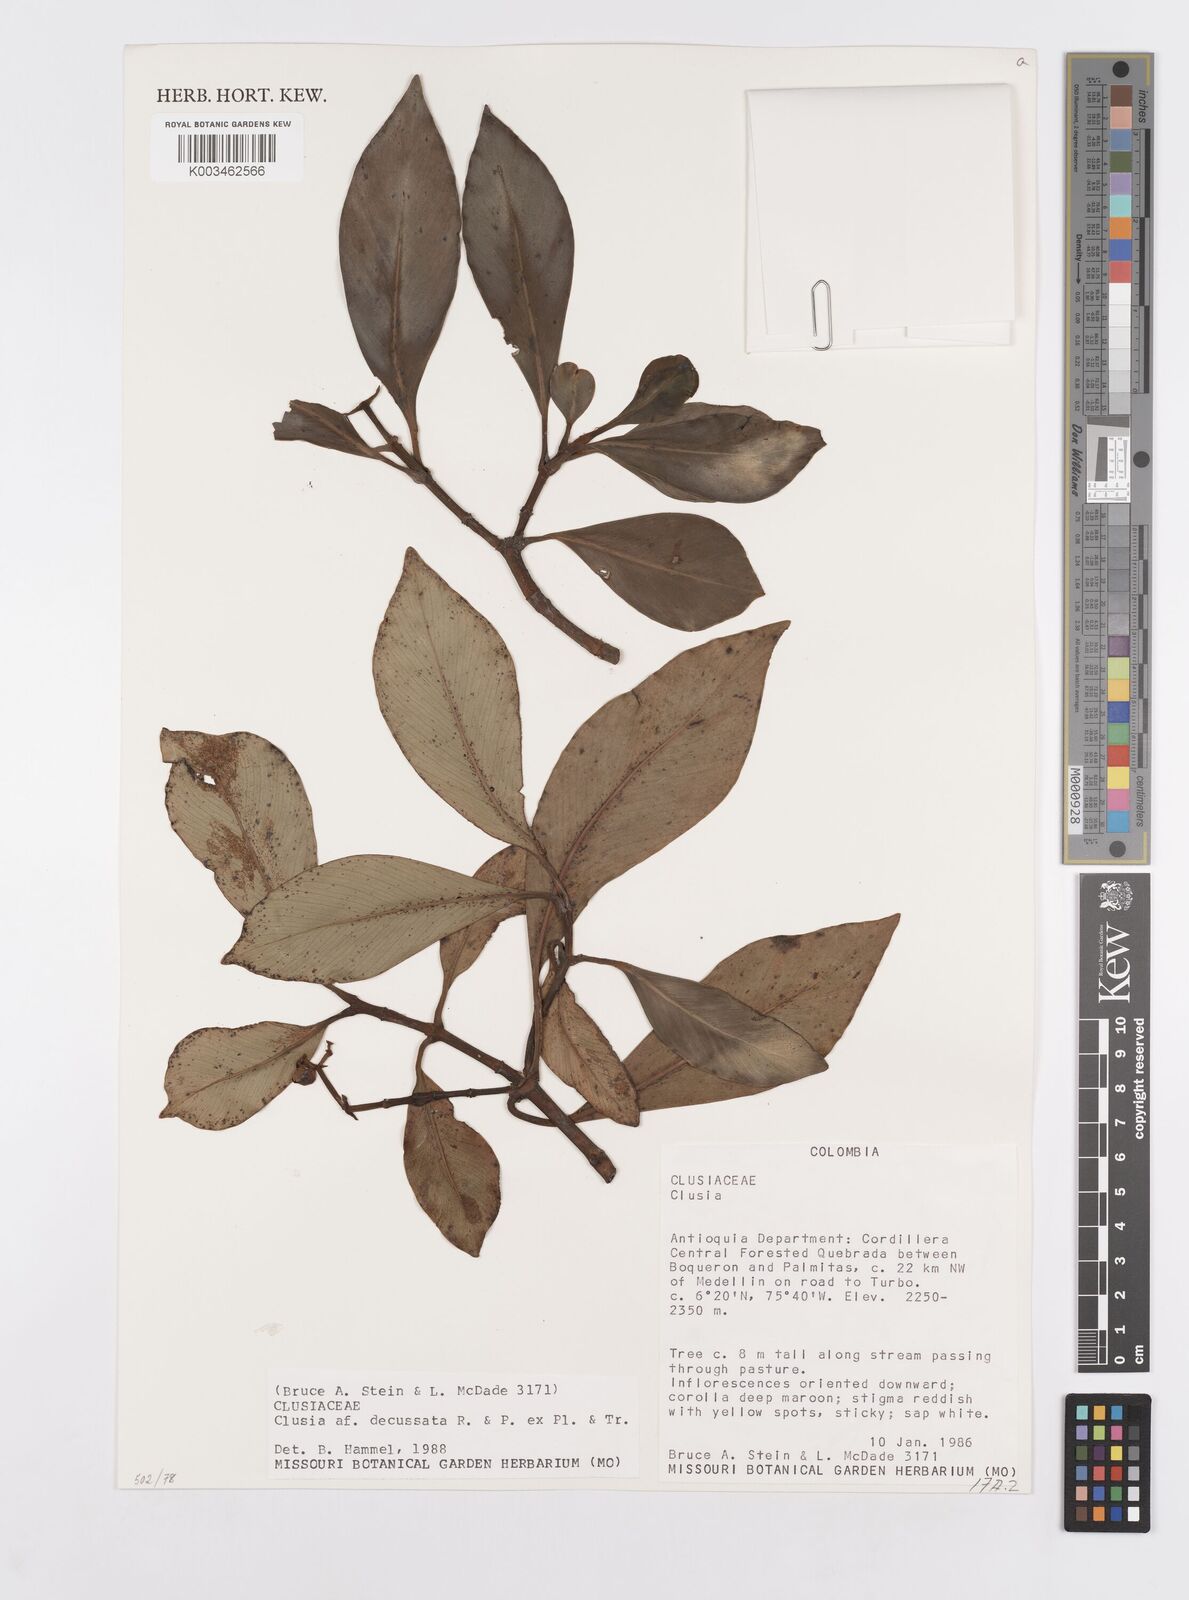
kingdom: Plantae
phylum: Tracheophyta
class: Magnoliopsida
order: Malpighiales
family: Clusiaceae
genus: Clusia
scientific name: Clusia decussata
